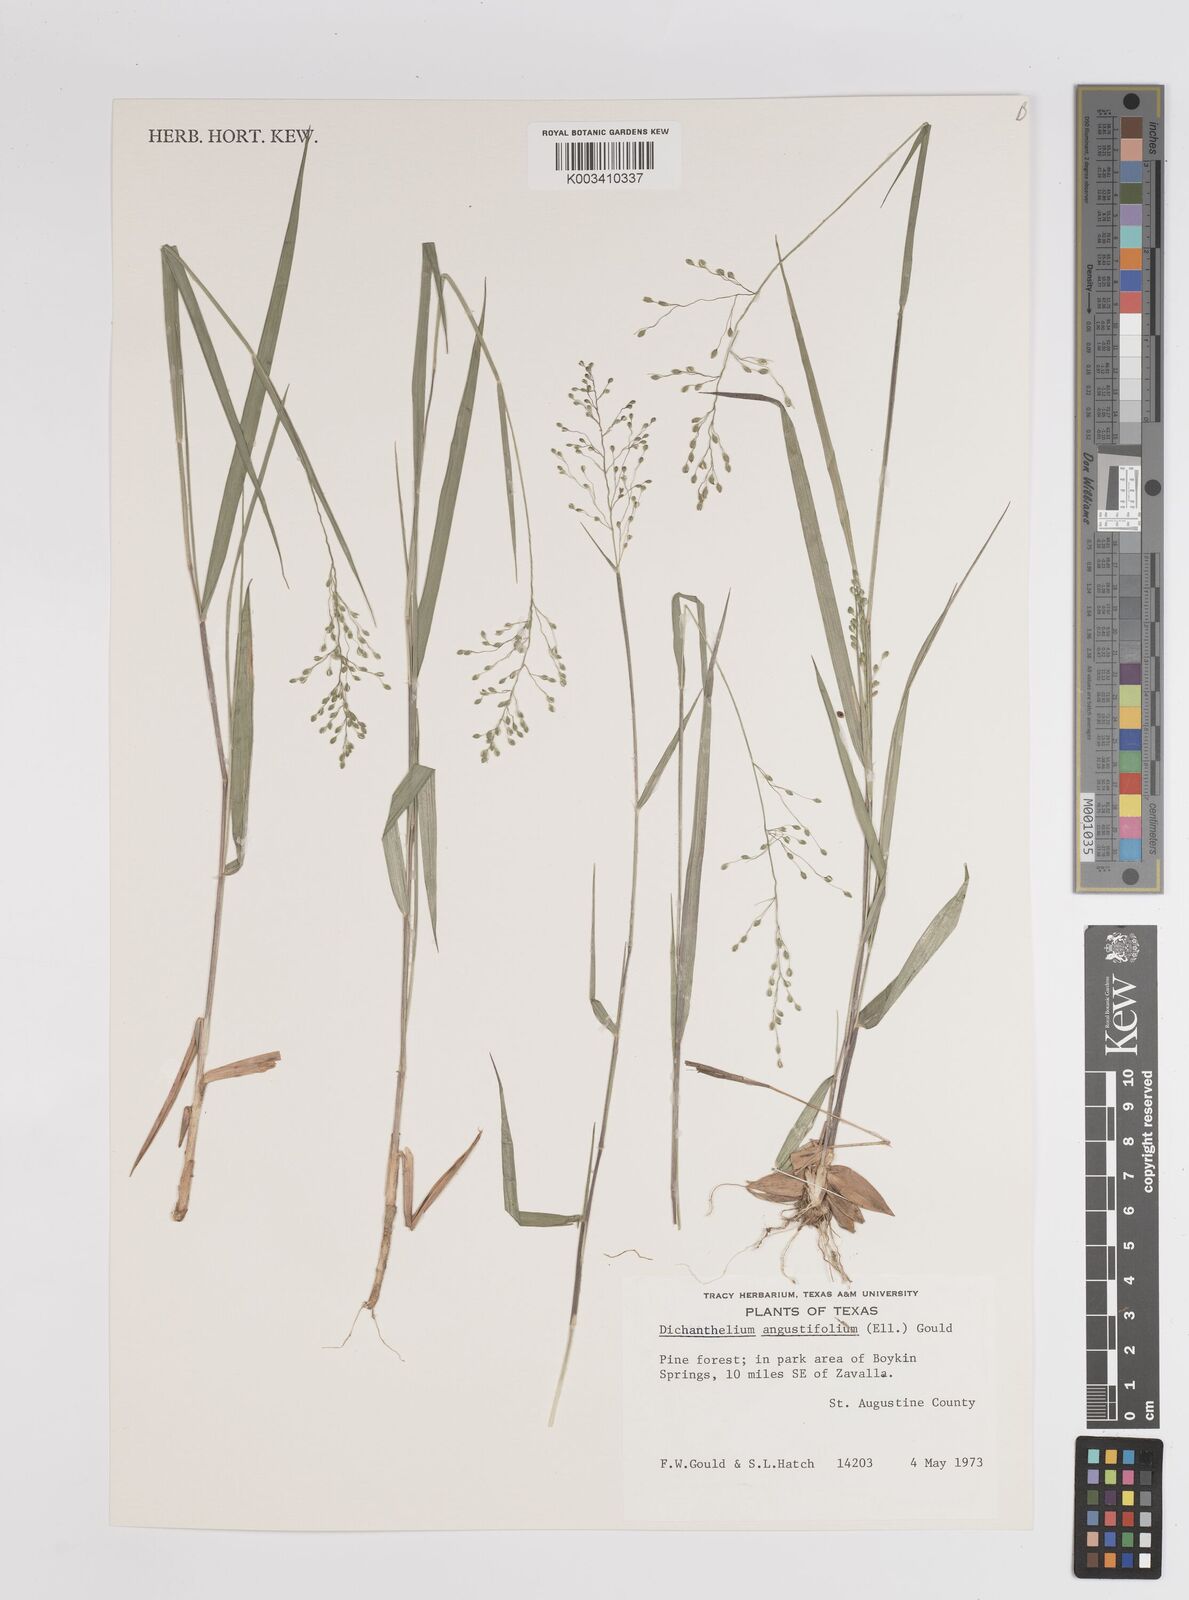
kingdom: Plantae
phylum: Tracheophyta
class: Liliopsida
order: Poales
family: Poaceae
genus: Dichanthelium
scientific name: Dichanthelium angustifolium
